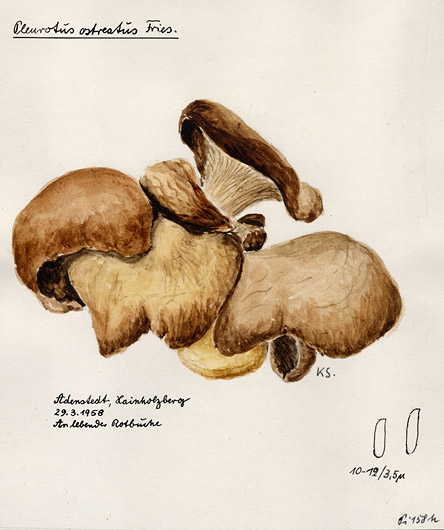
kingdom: Fungi
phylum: Basidiomycota
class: Agaricomycetes
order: Agaricales
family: Pleurotaceae
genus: Pleurotus
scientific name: Pleurotus ostreatus
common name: Oyster mushroom
